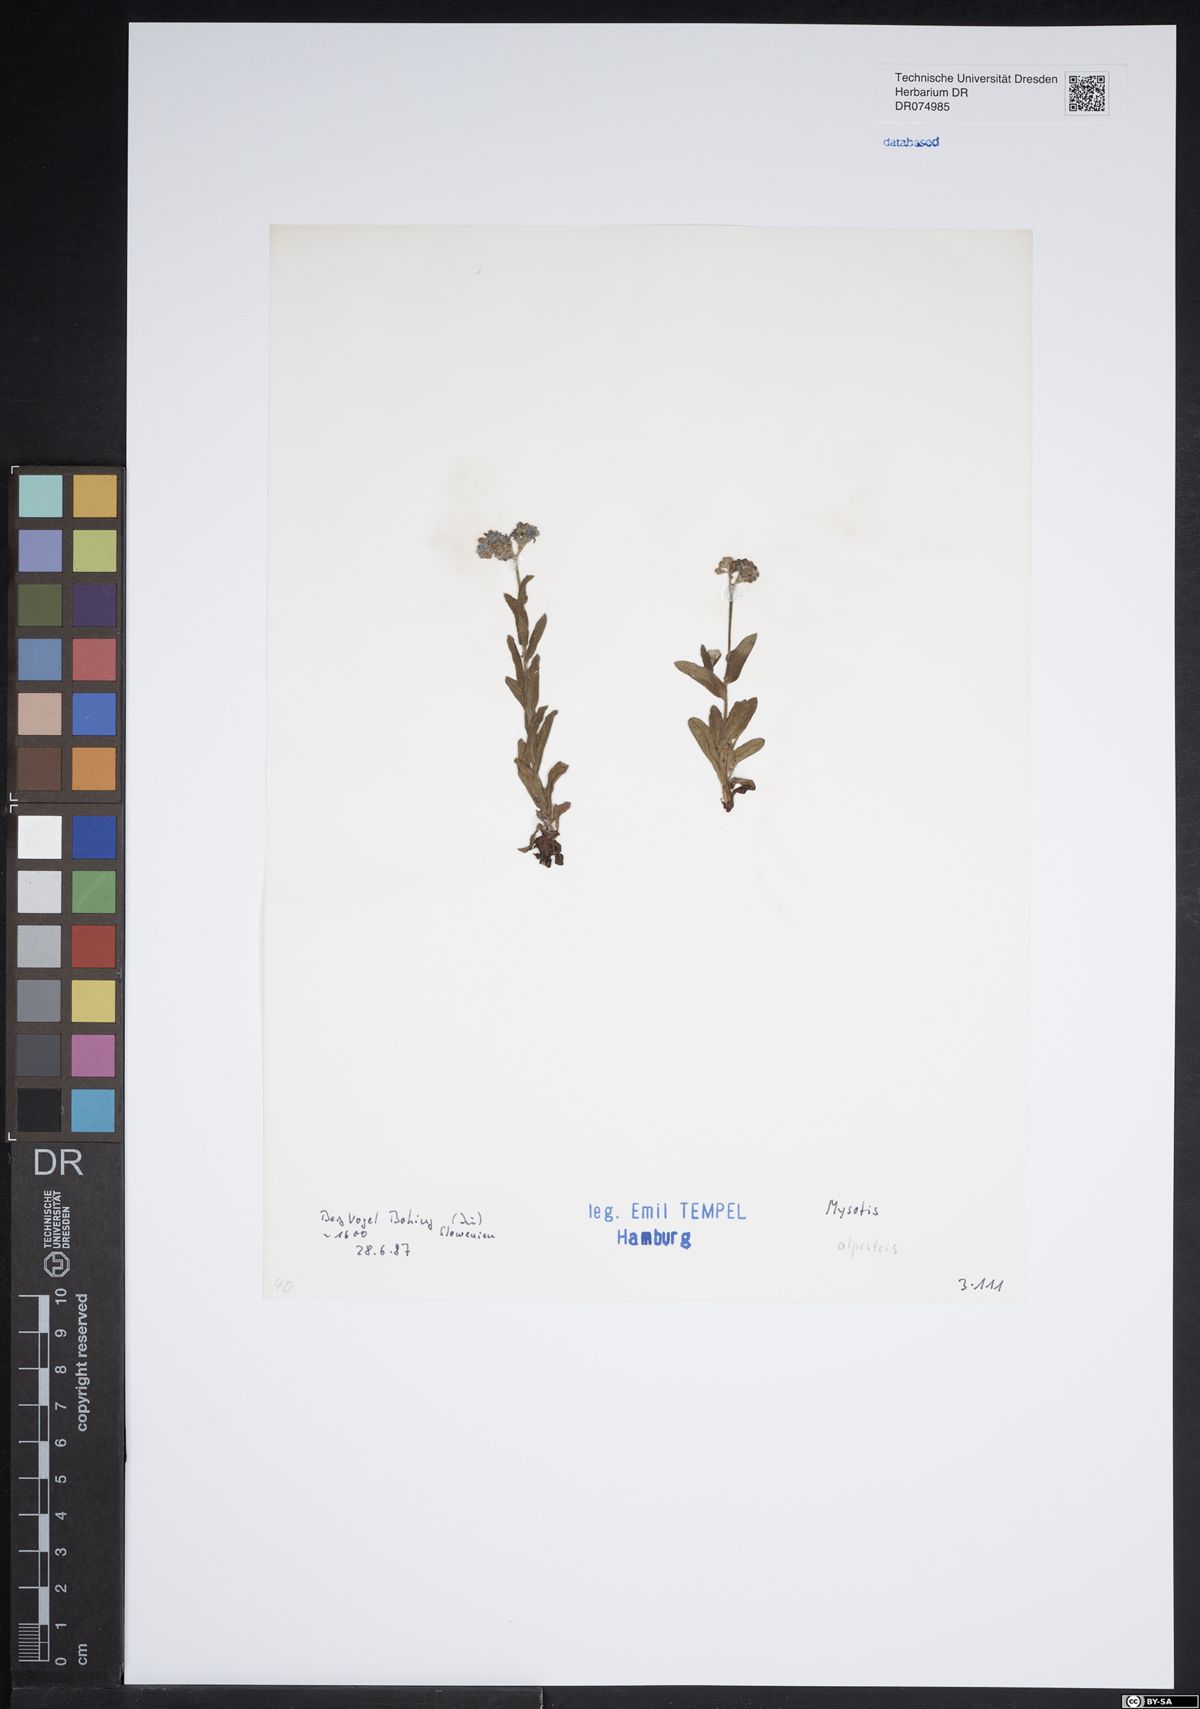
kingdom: Plantae
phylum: Tracheophyta
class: Magnoliopsida
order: Boraginales
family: Boraginaceae
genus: Myosotis
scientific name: Myosotis alpestris
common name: Alpine forget-me-not
